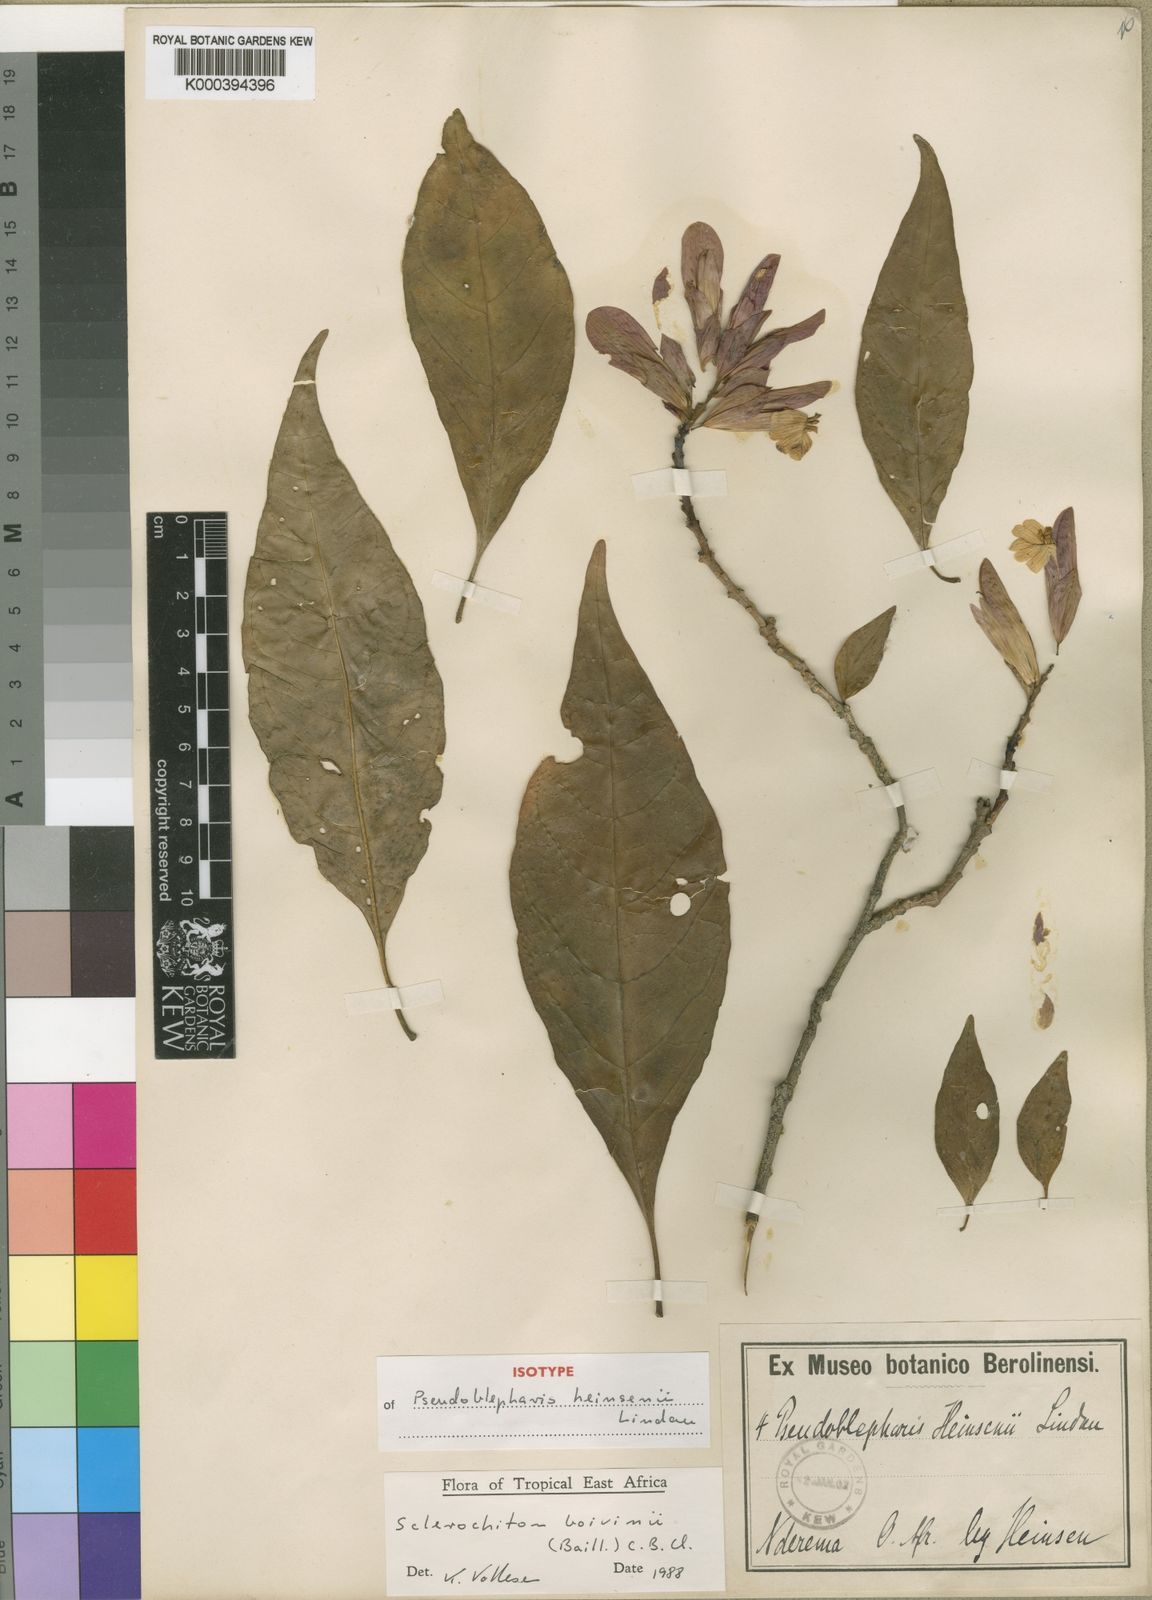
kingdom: Plantae
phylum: Tracheophyta
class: Magnoliopsida
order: Lamiales
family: Acanthaceae
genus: Sclerochiton
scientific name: Sclerochiton boivinii
